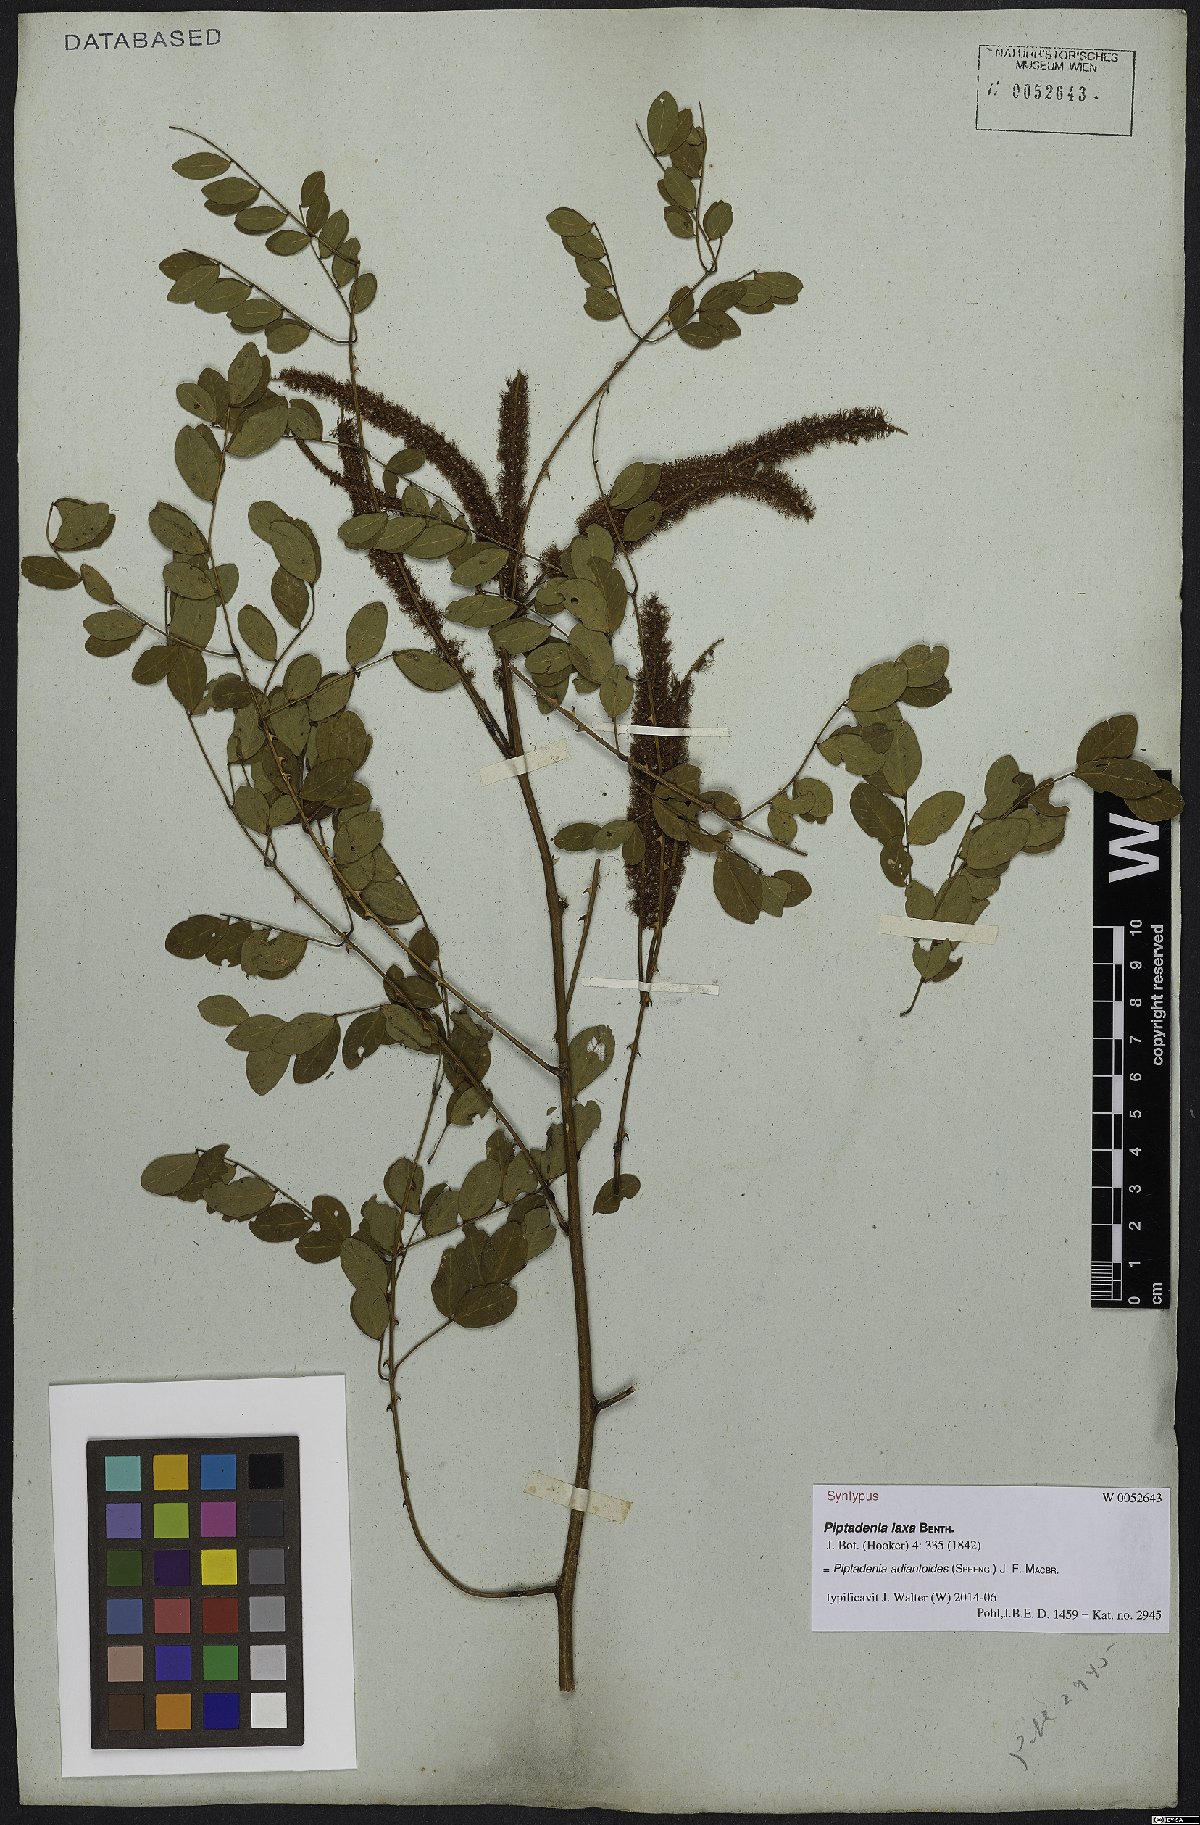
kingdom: Plantae
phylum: Tracheophyta
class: Magnoliopsida
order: Fabales
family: Fabaceae
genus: Piptadenia
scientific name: Piptadenia adiantoides
